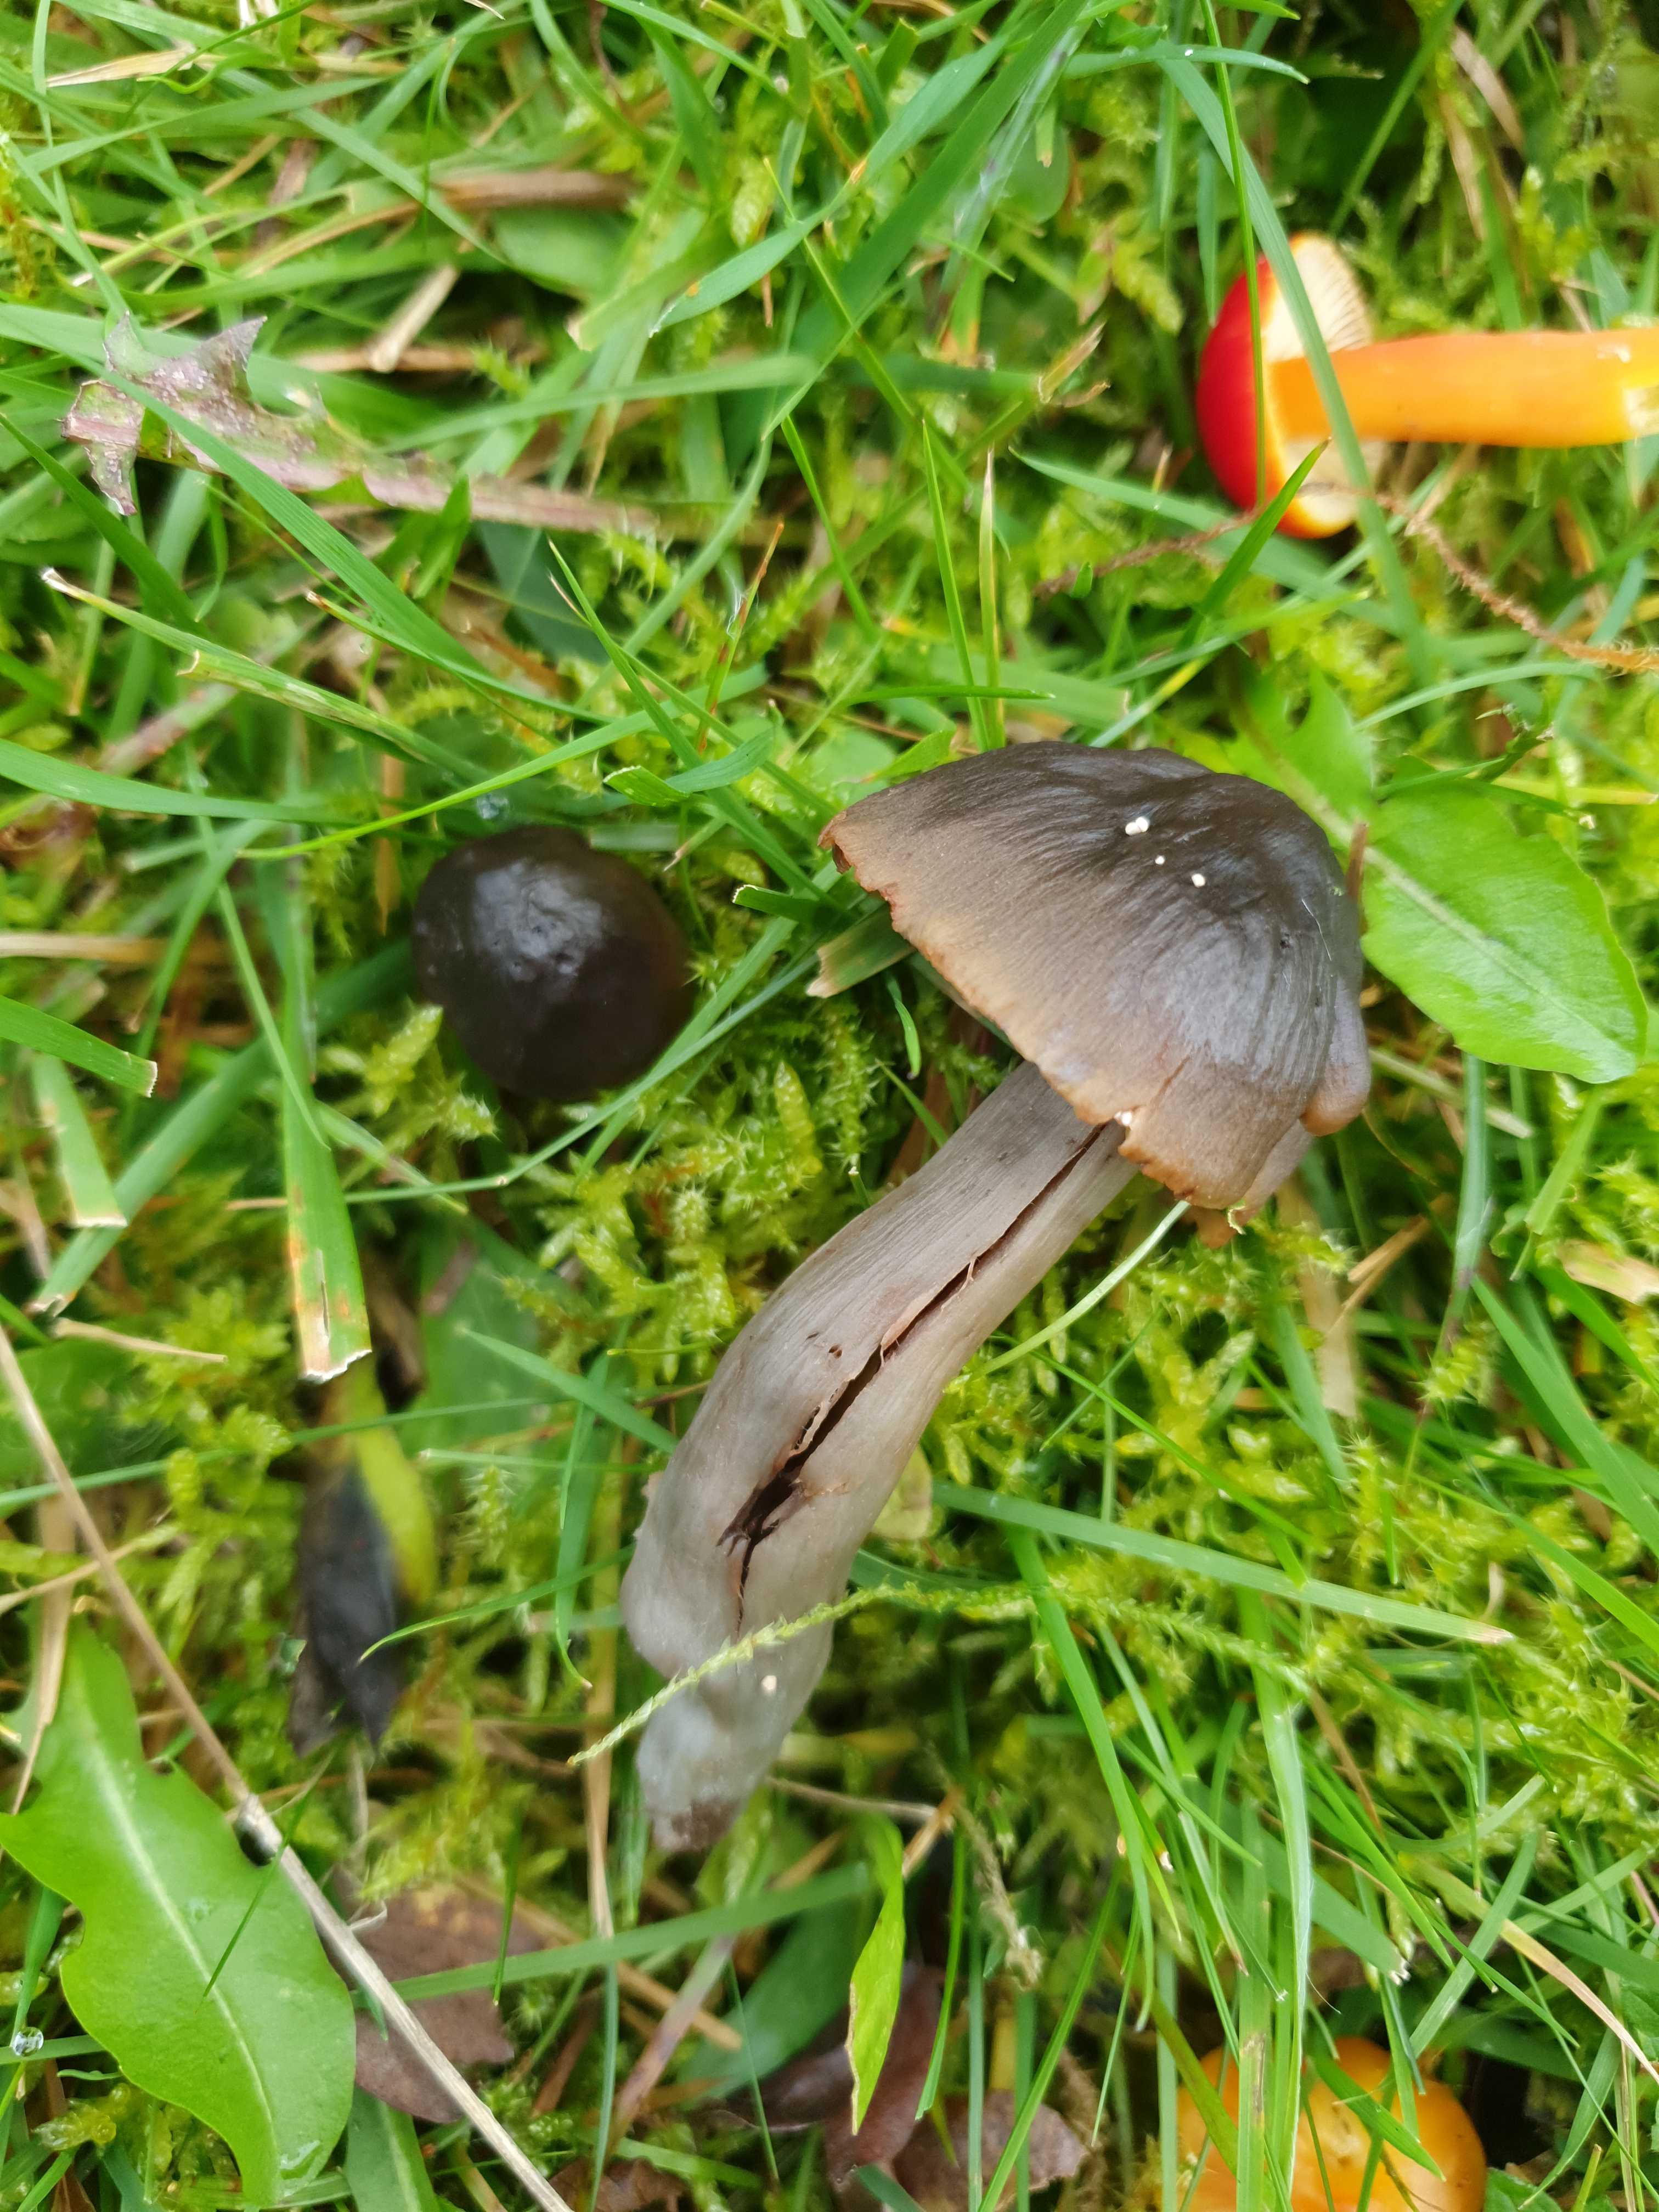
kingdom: Fungi
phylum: Basidiomycota
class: Agaricomycetes
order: Agaricales
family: Hygrophoraceae
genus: Neohygrocybe
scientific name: Neohygrocybe ovina
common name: rødmende vokshat
